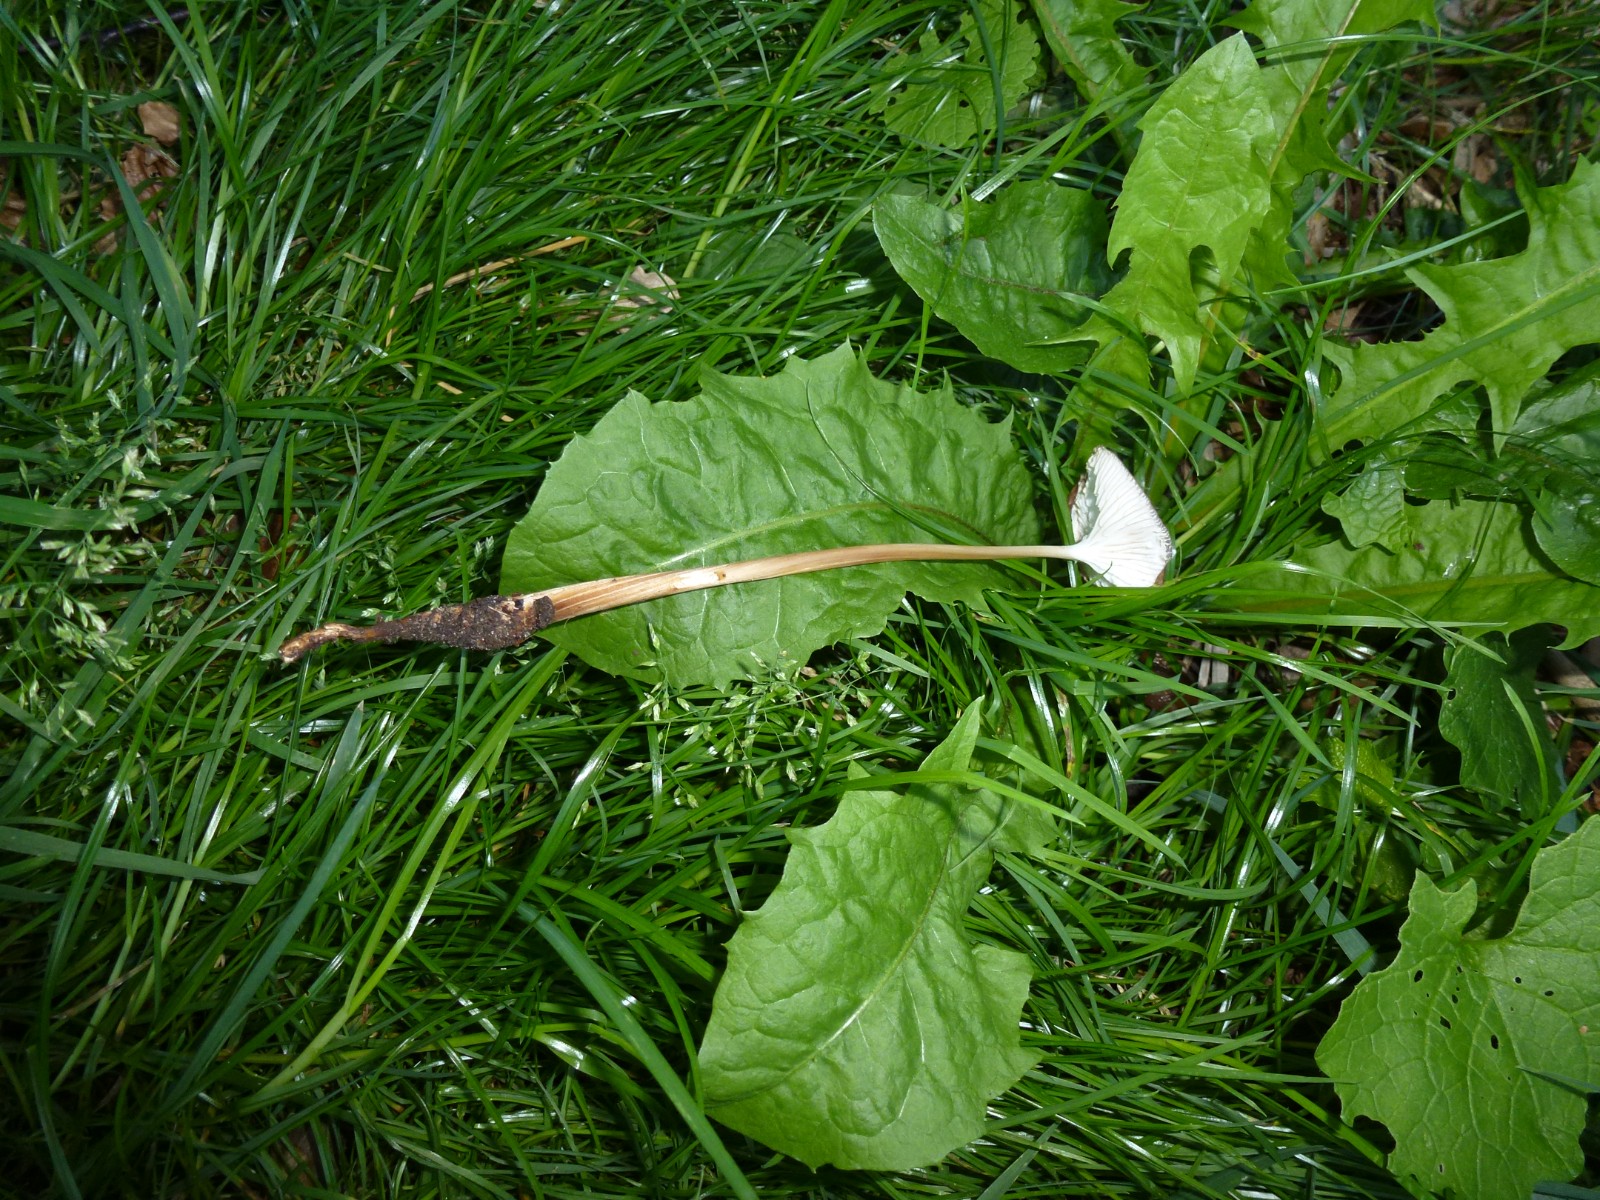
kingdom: Fungi
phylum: Basidiomycota
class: Agaricomycetes
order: Agaricales
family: Physalacriaceae
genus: Hymenopellis
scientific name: Hymenopellis radicata
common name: almindelig pælerodshat
